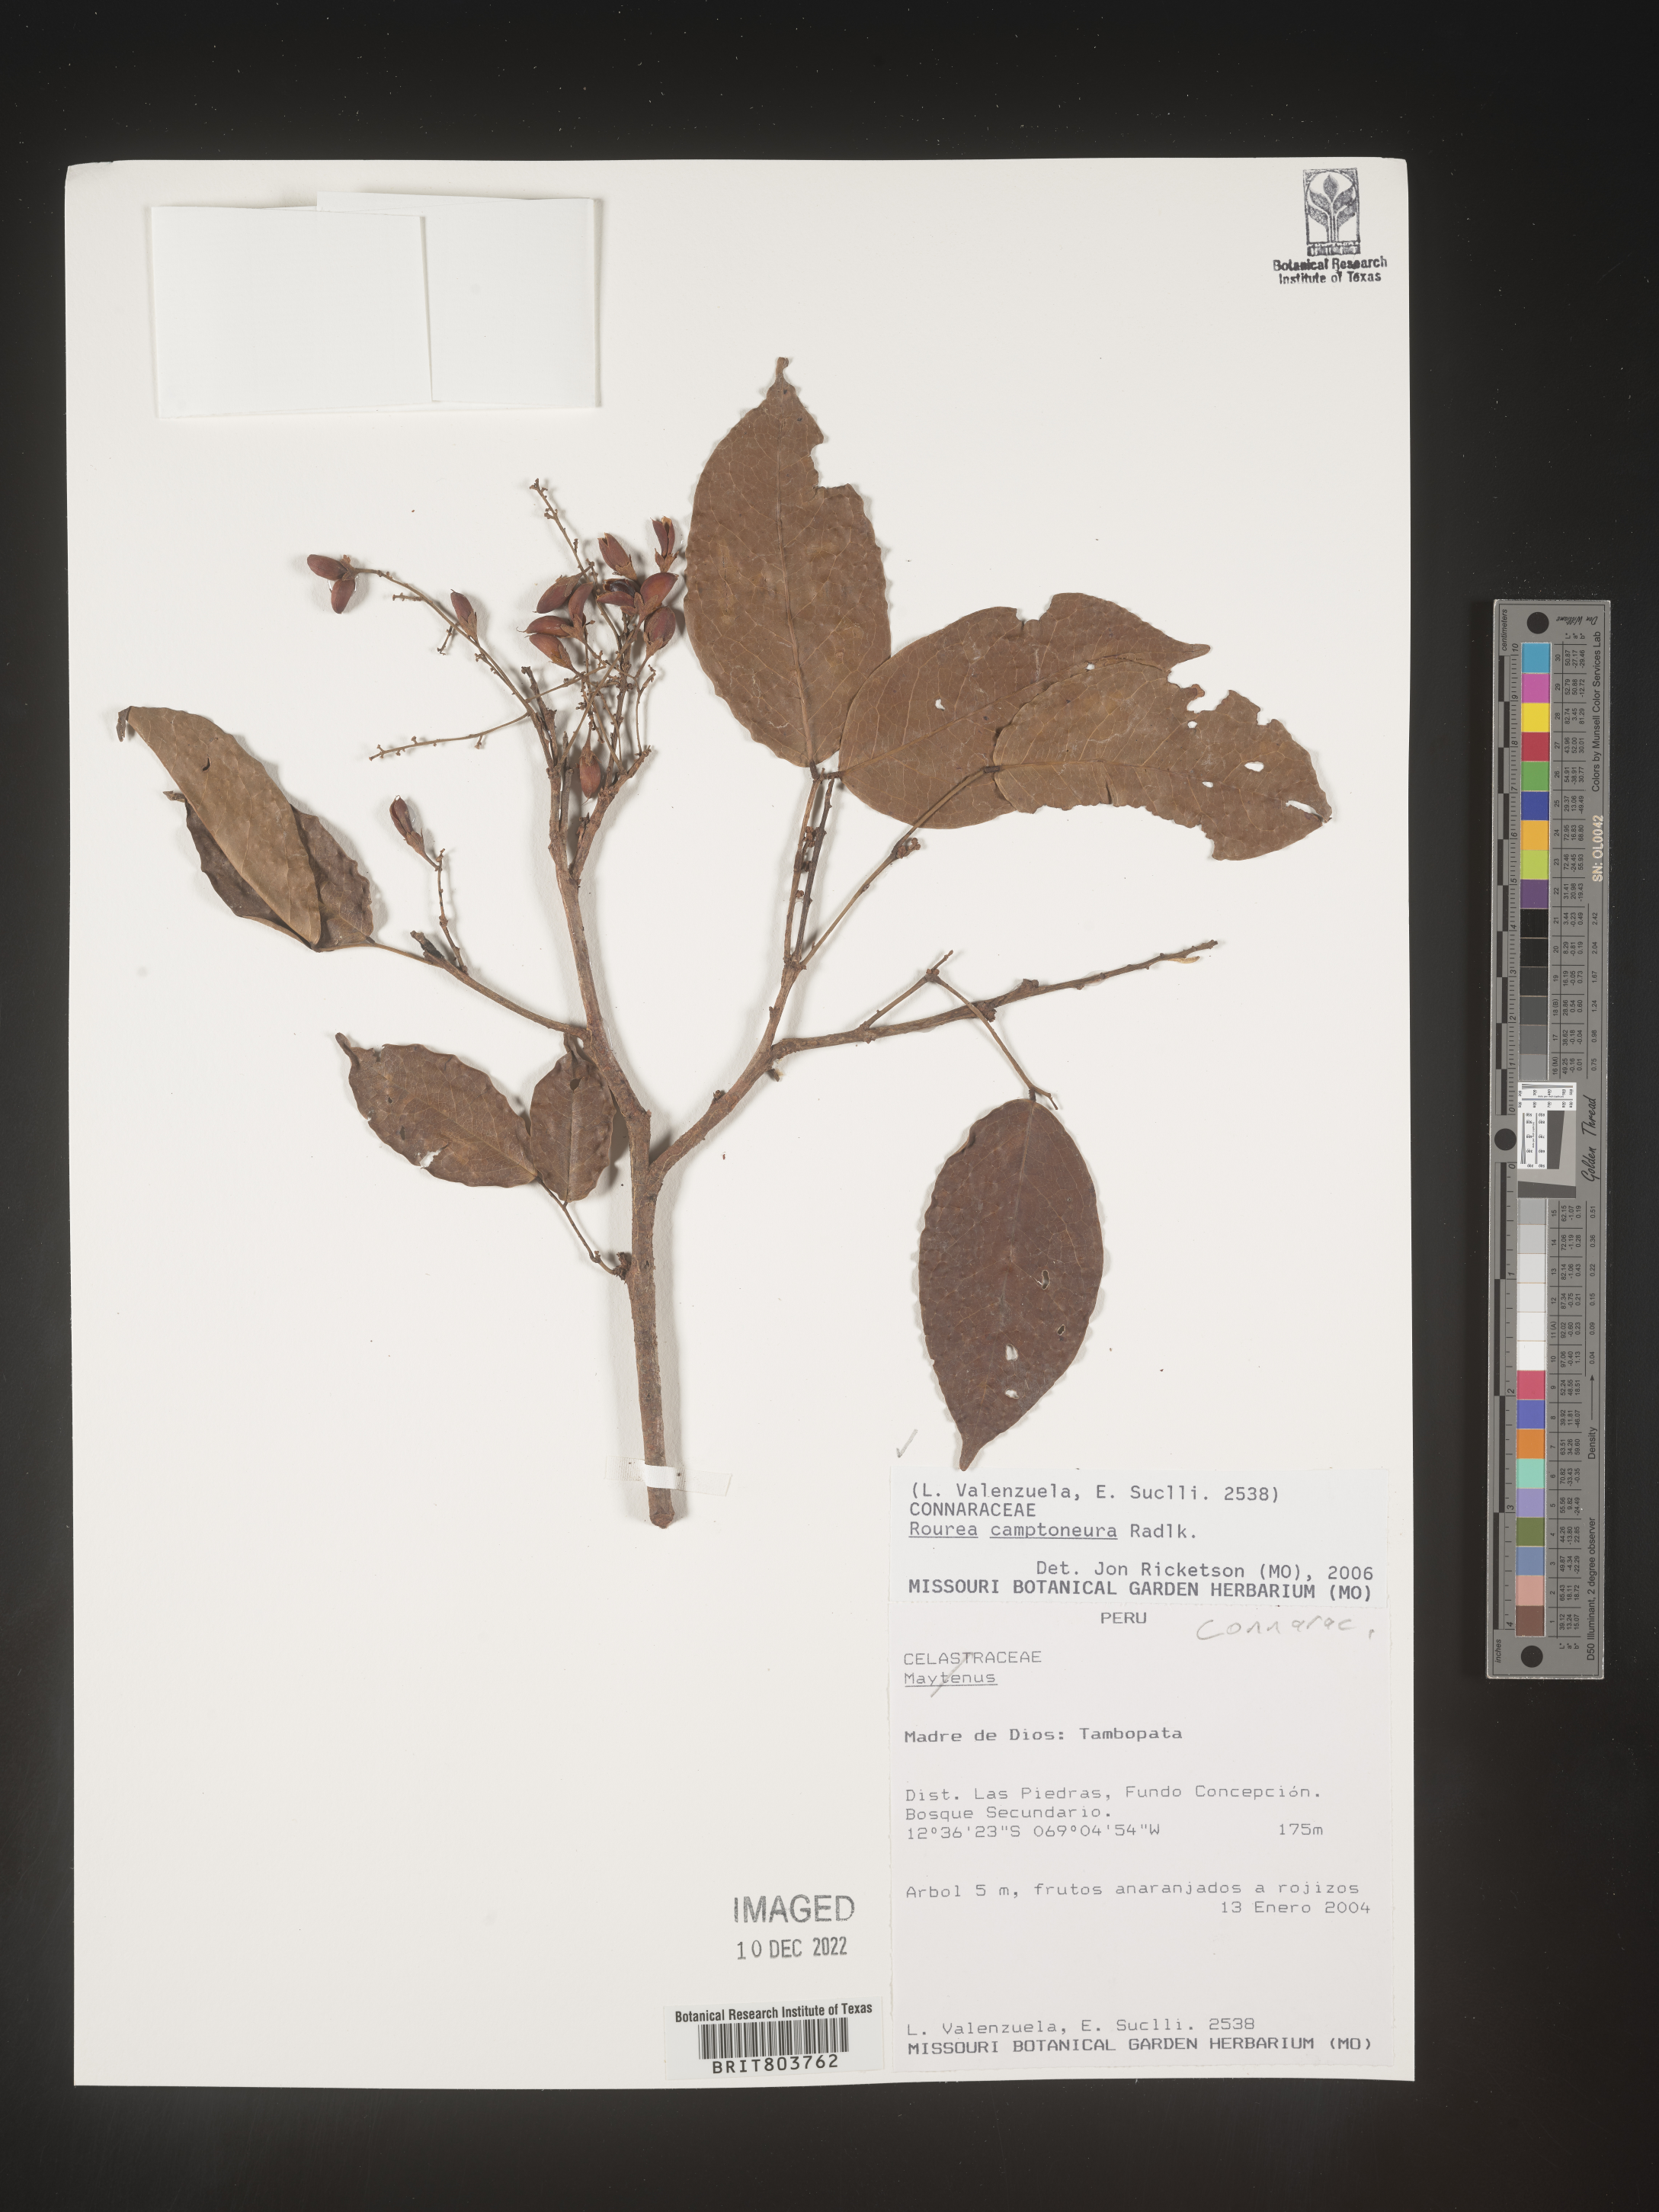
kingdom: Plantae
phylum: Tracheophyta
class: Magnoliopsida
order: Oxalidales
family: Connaraceae
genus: Rourea
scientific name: Rourea
